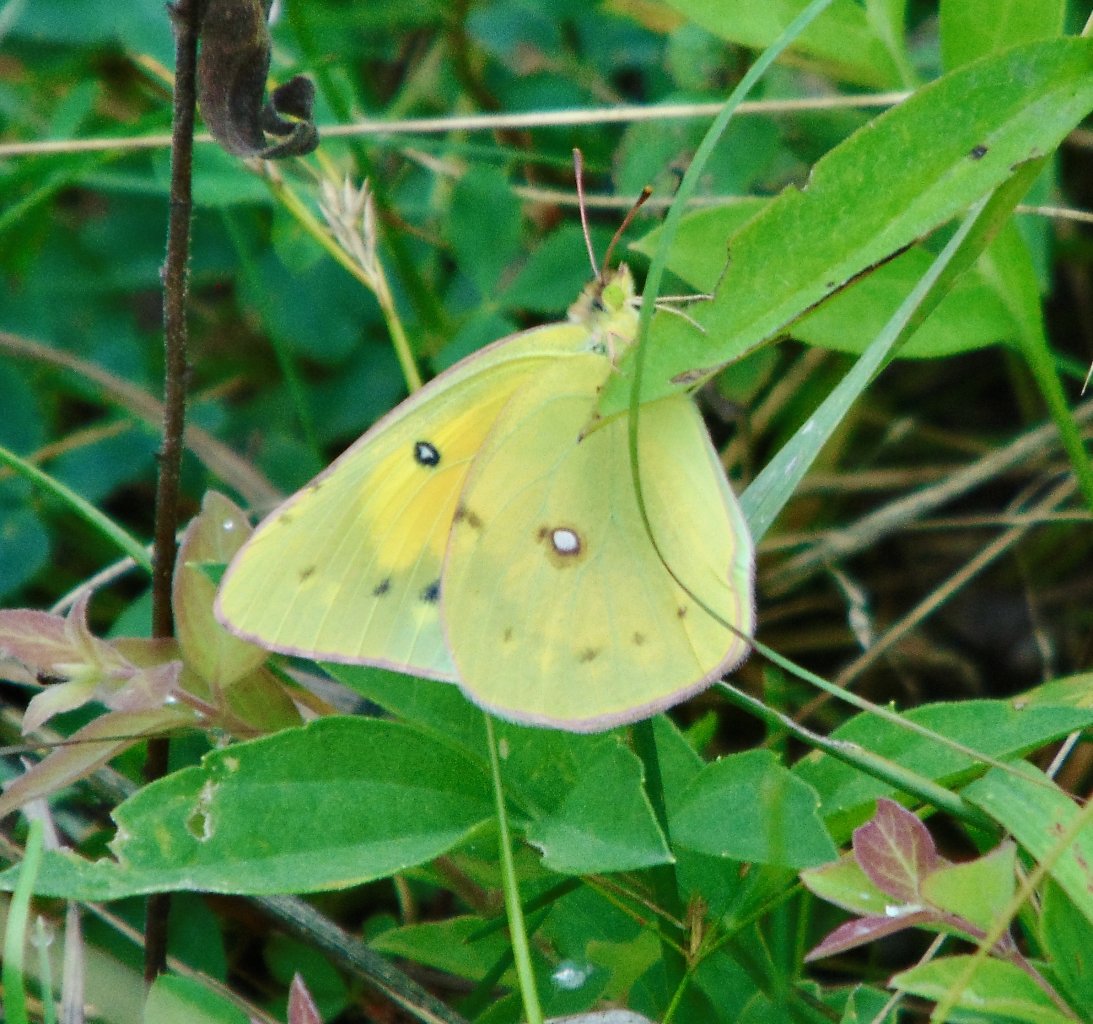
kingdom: Animalia
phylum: Arthropoda
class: Insecta
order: Lepidoptera
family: Pieridae
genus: Colias
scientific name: Colias eurytheme
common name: Orange Sulphur
